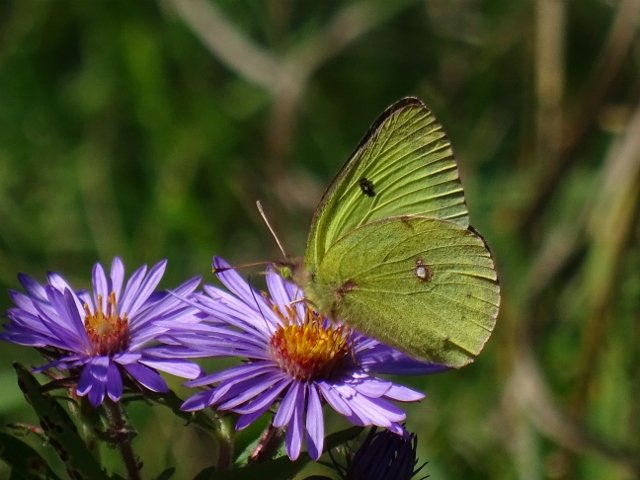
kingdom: Animalia
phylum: Arthropoda
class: Insecta
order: Lepidoptera
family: Pieridae
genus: Colias
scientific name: Colias philodice
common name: Clouded Sulphur
